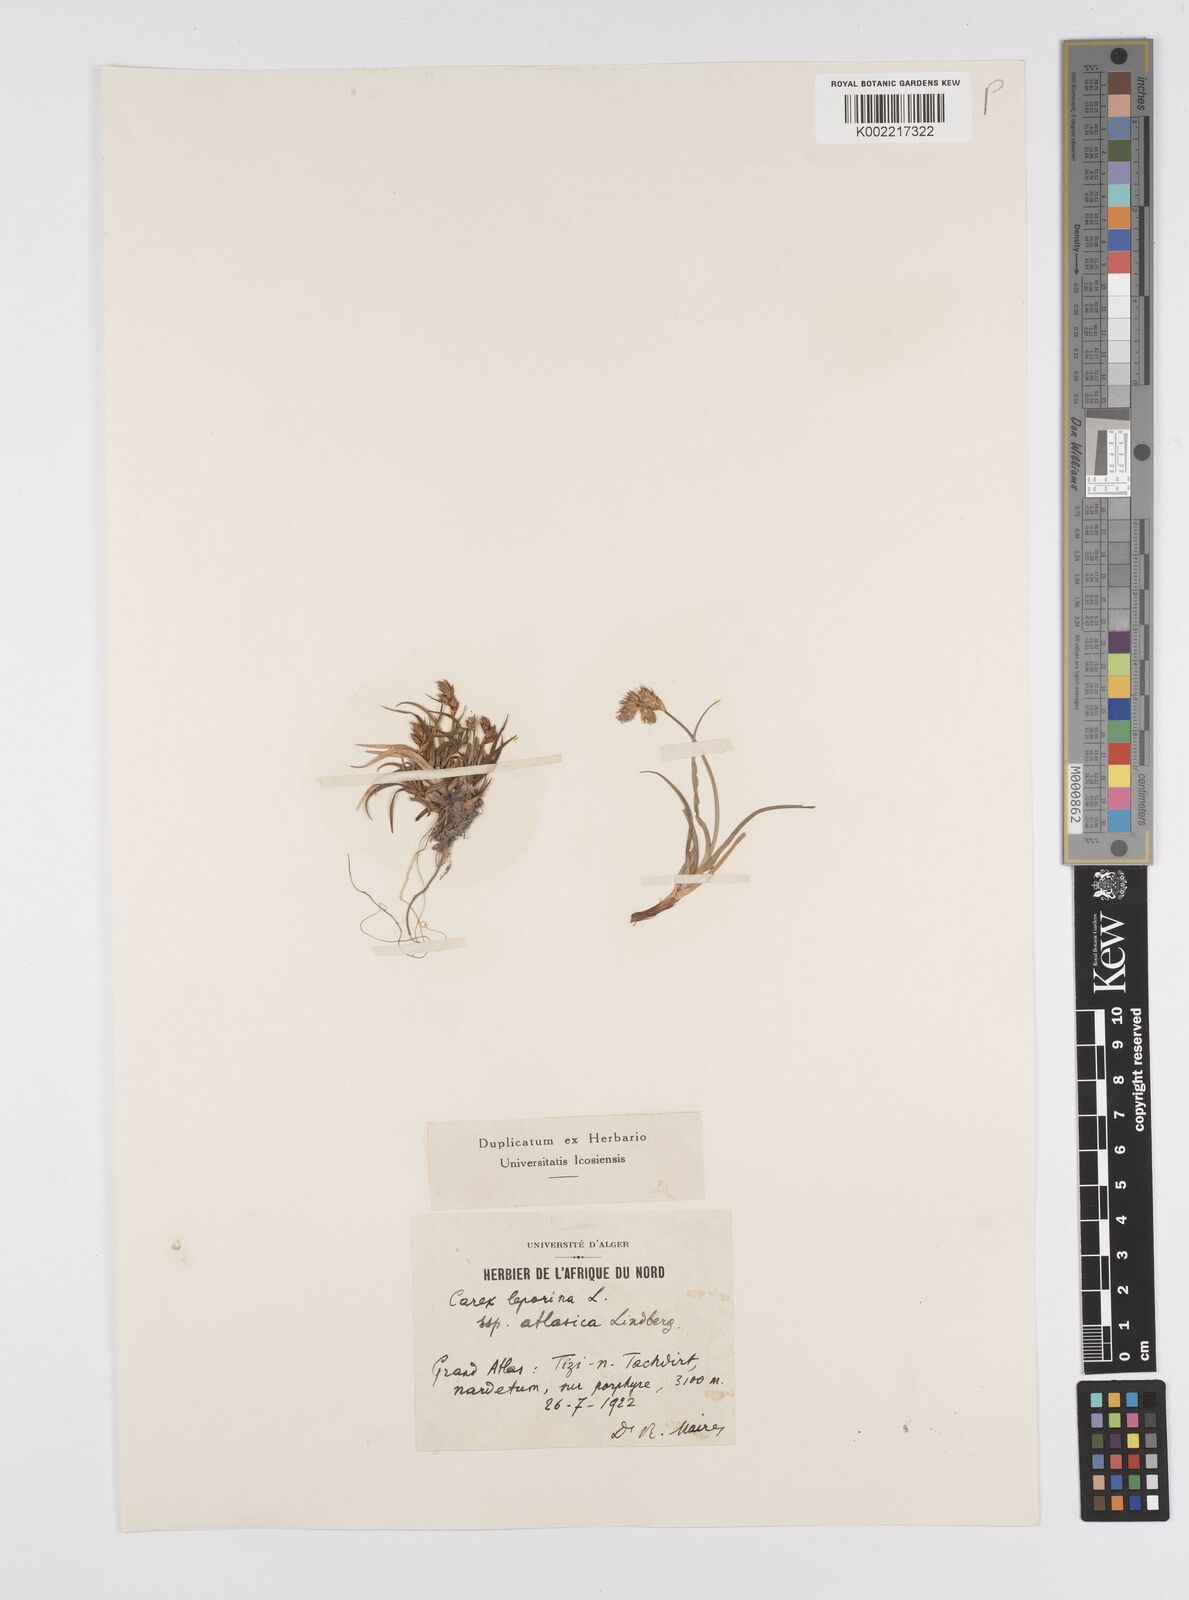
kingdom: Plantae
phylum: Tracheophyta
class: Liliopsida
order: Poales
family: Cyperaceae
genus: Carex
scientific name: Carex leporina
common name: Oval sedge
